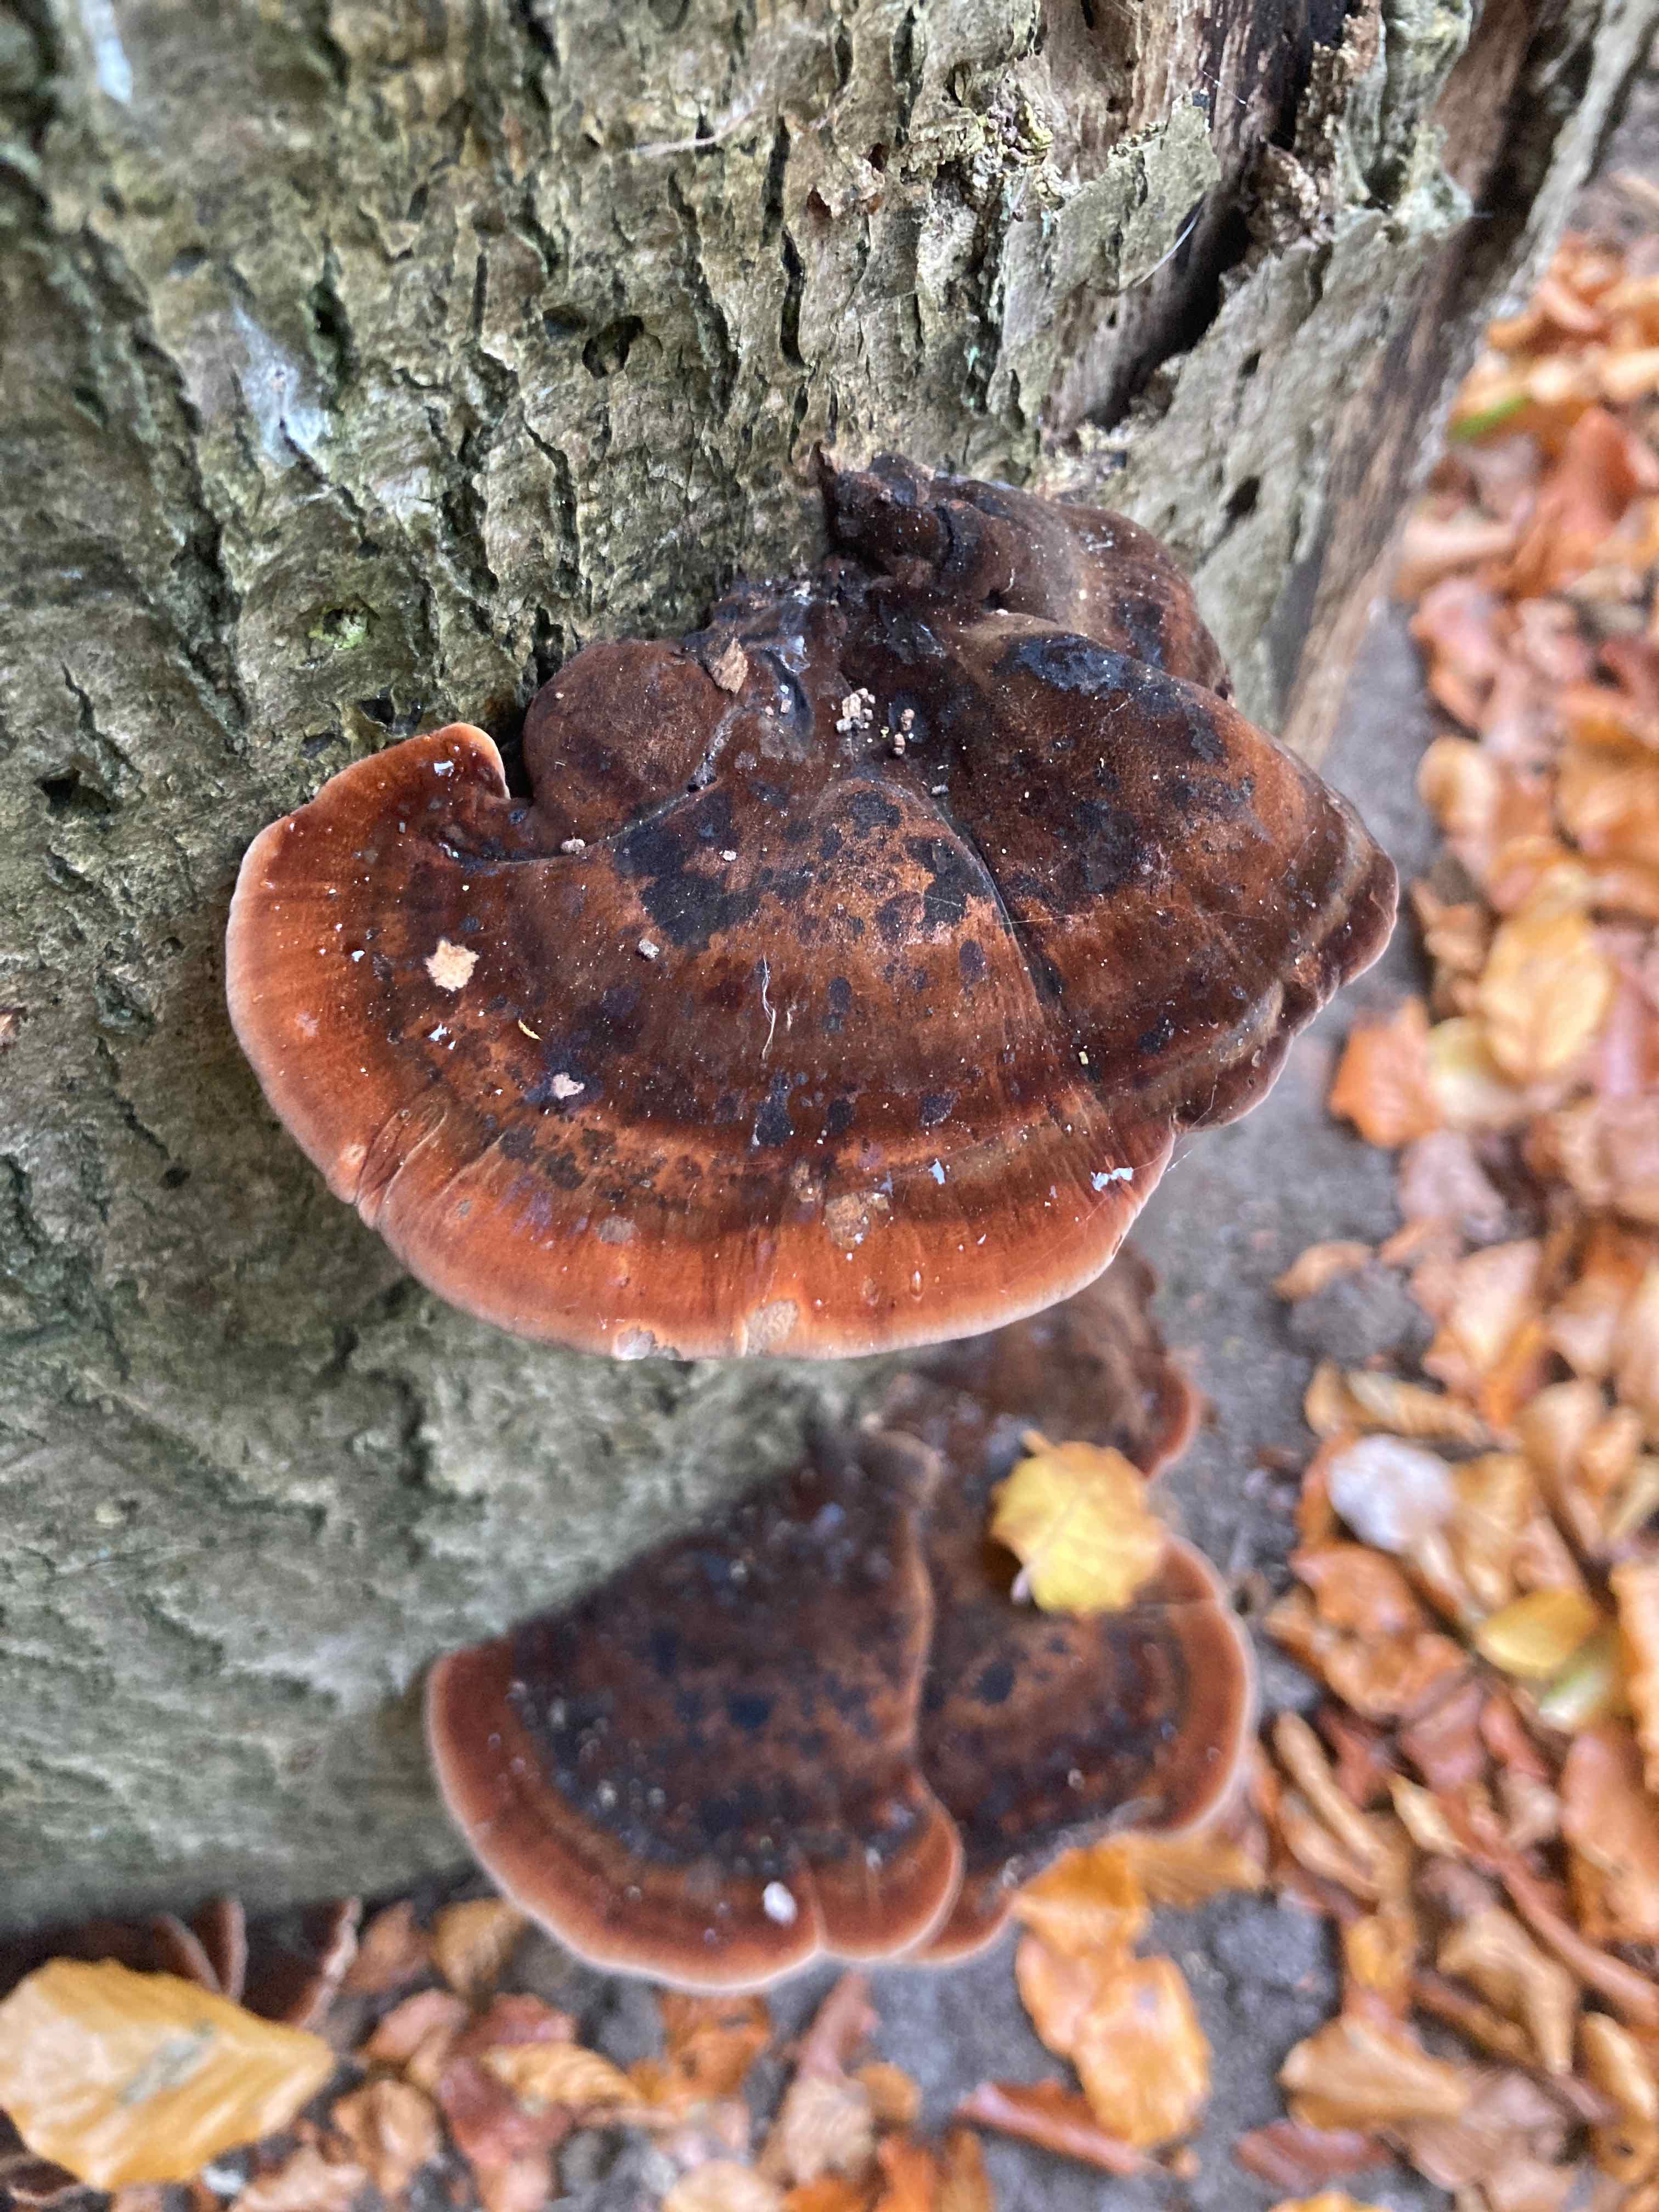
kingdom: Fungi
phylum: Basidiomycota
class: Agaricomycetes
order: Polyporales
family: Ischnodermataceae
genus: Ischnoderma
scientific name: Ischnoderma resinosum
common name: løv-tjæreporesvamp
